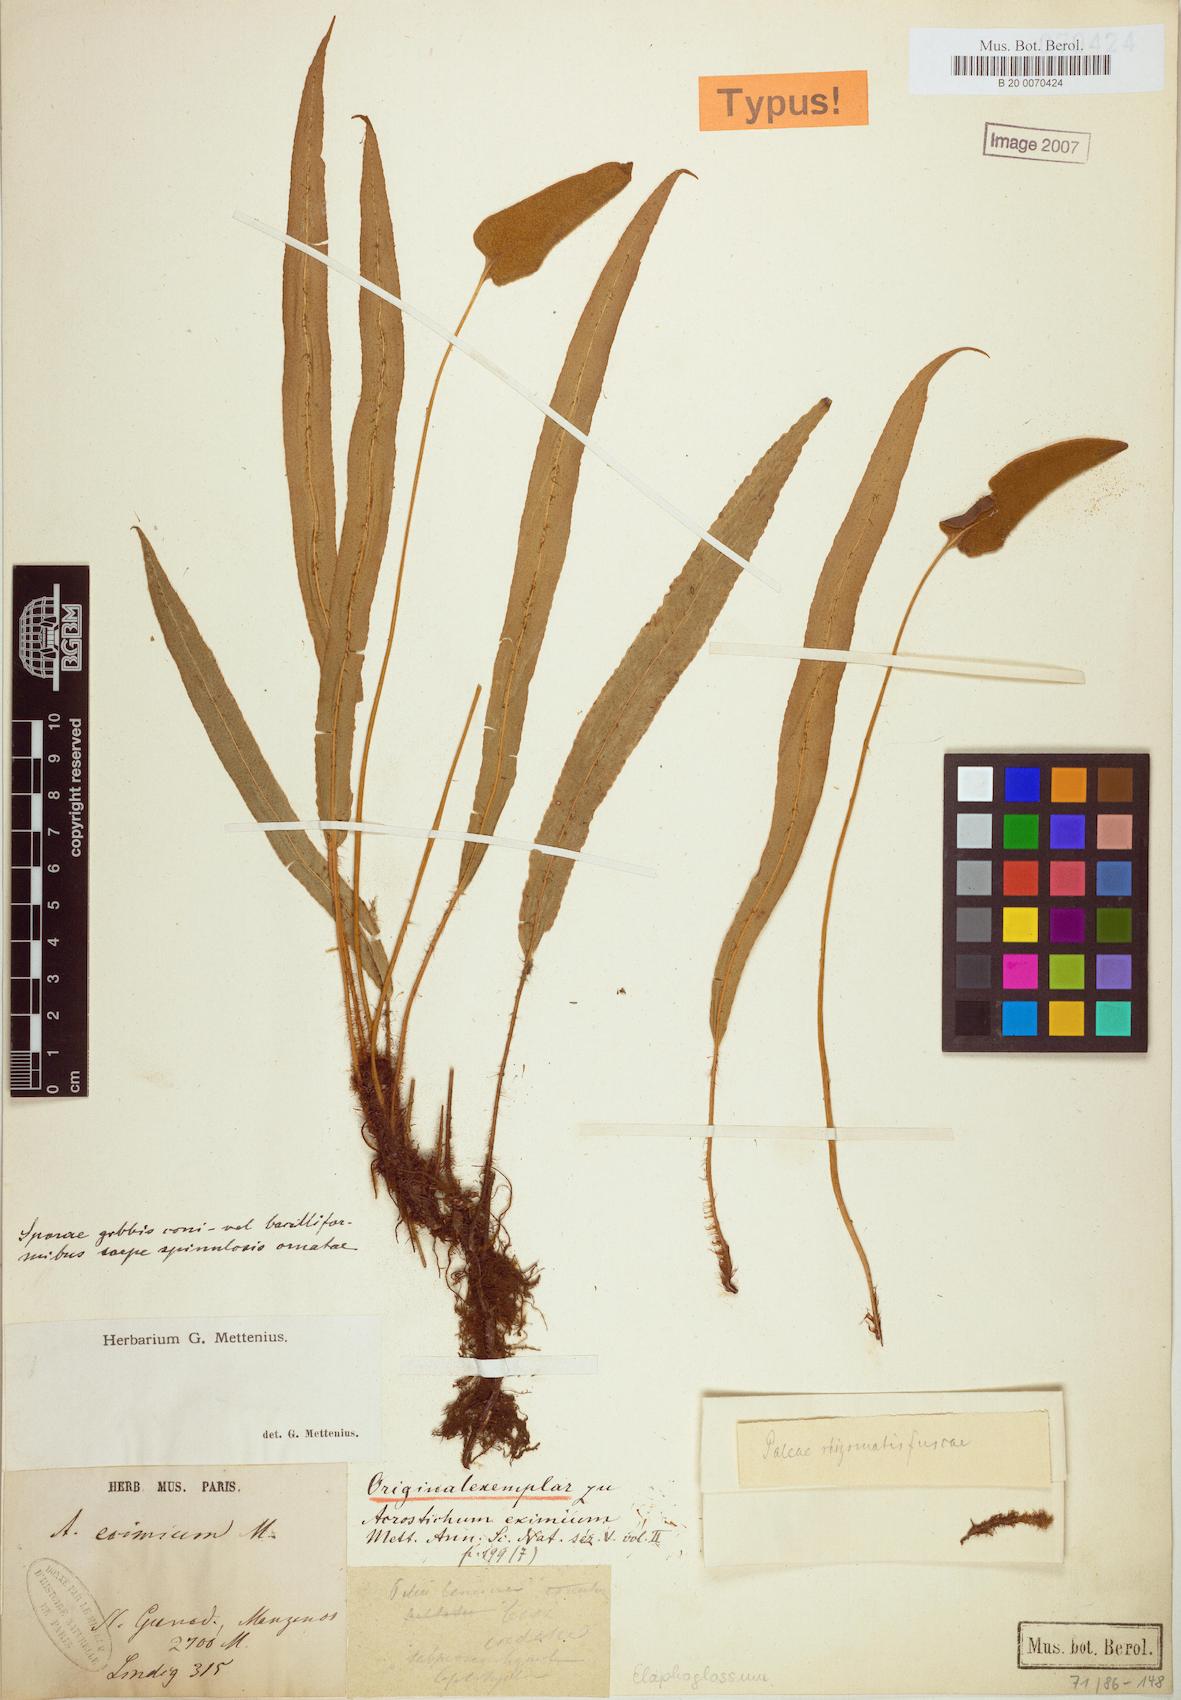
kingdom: Plantae
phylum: Tracheophyta
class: Polypodiopsida
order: Polypodiales
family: Dryopteridaceae
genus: Elaphoglossum
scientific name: Elaphoglossum eximium
